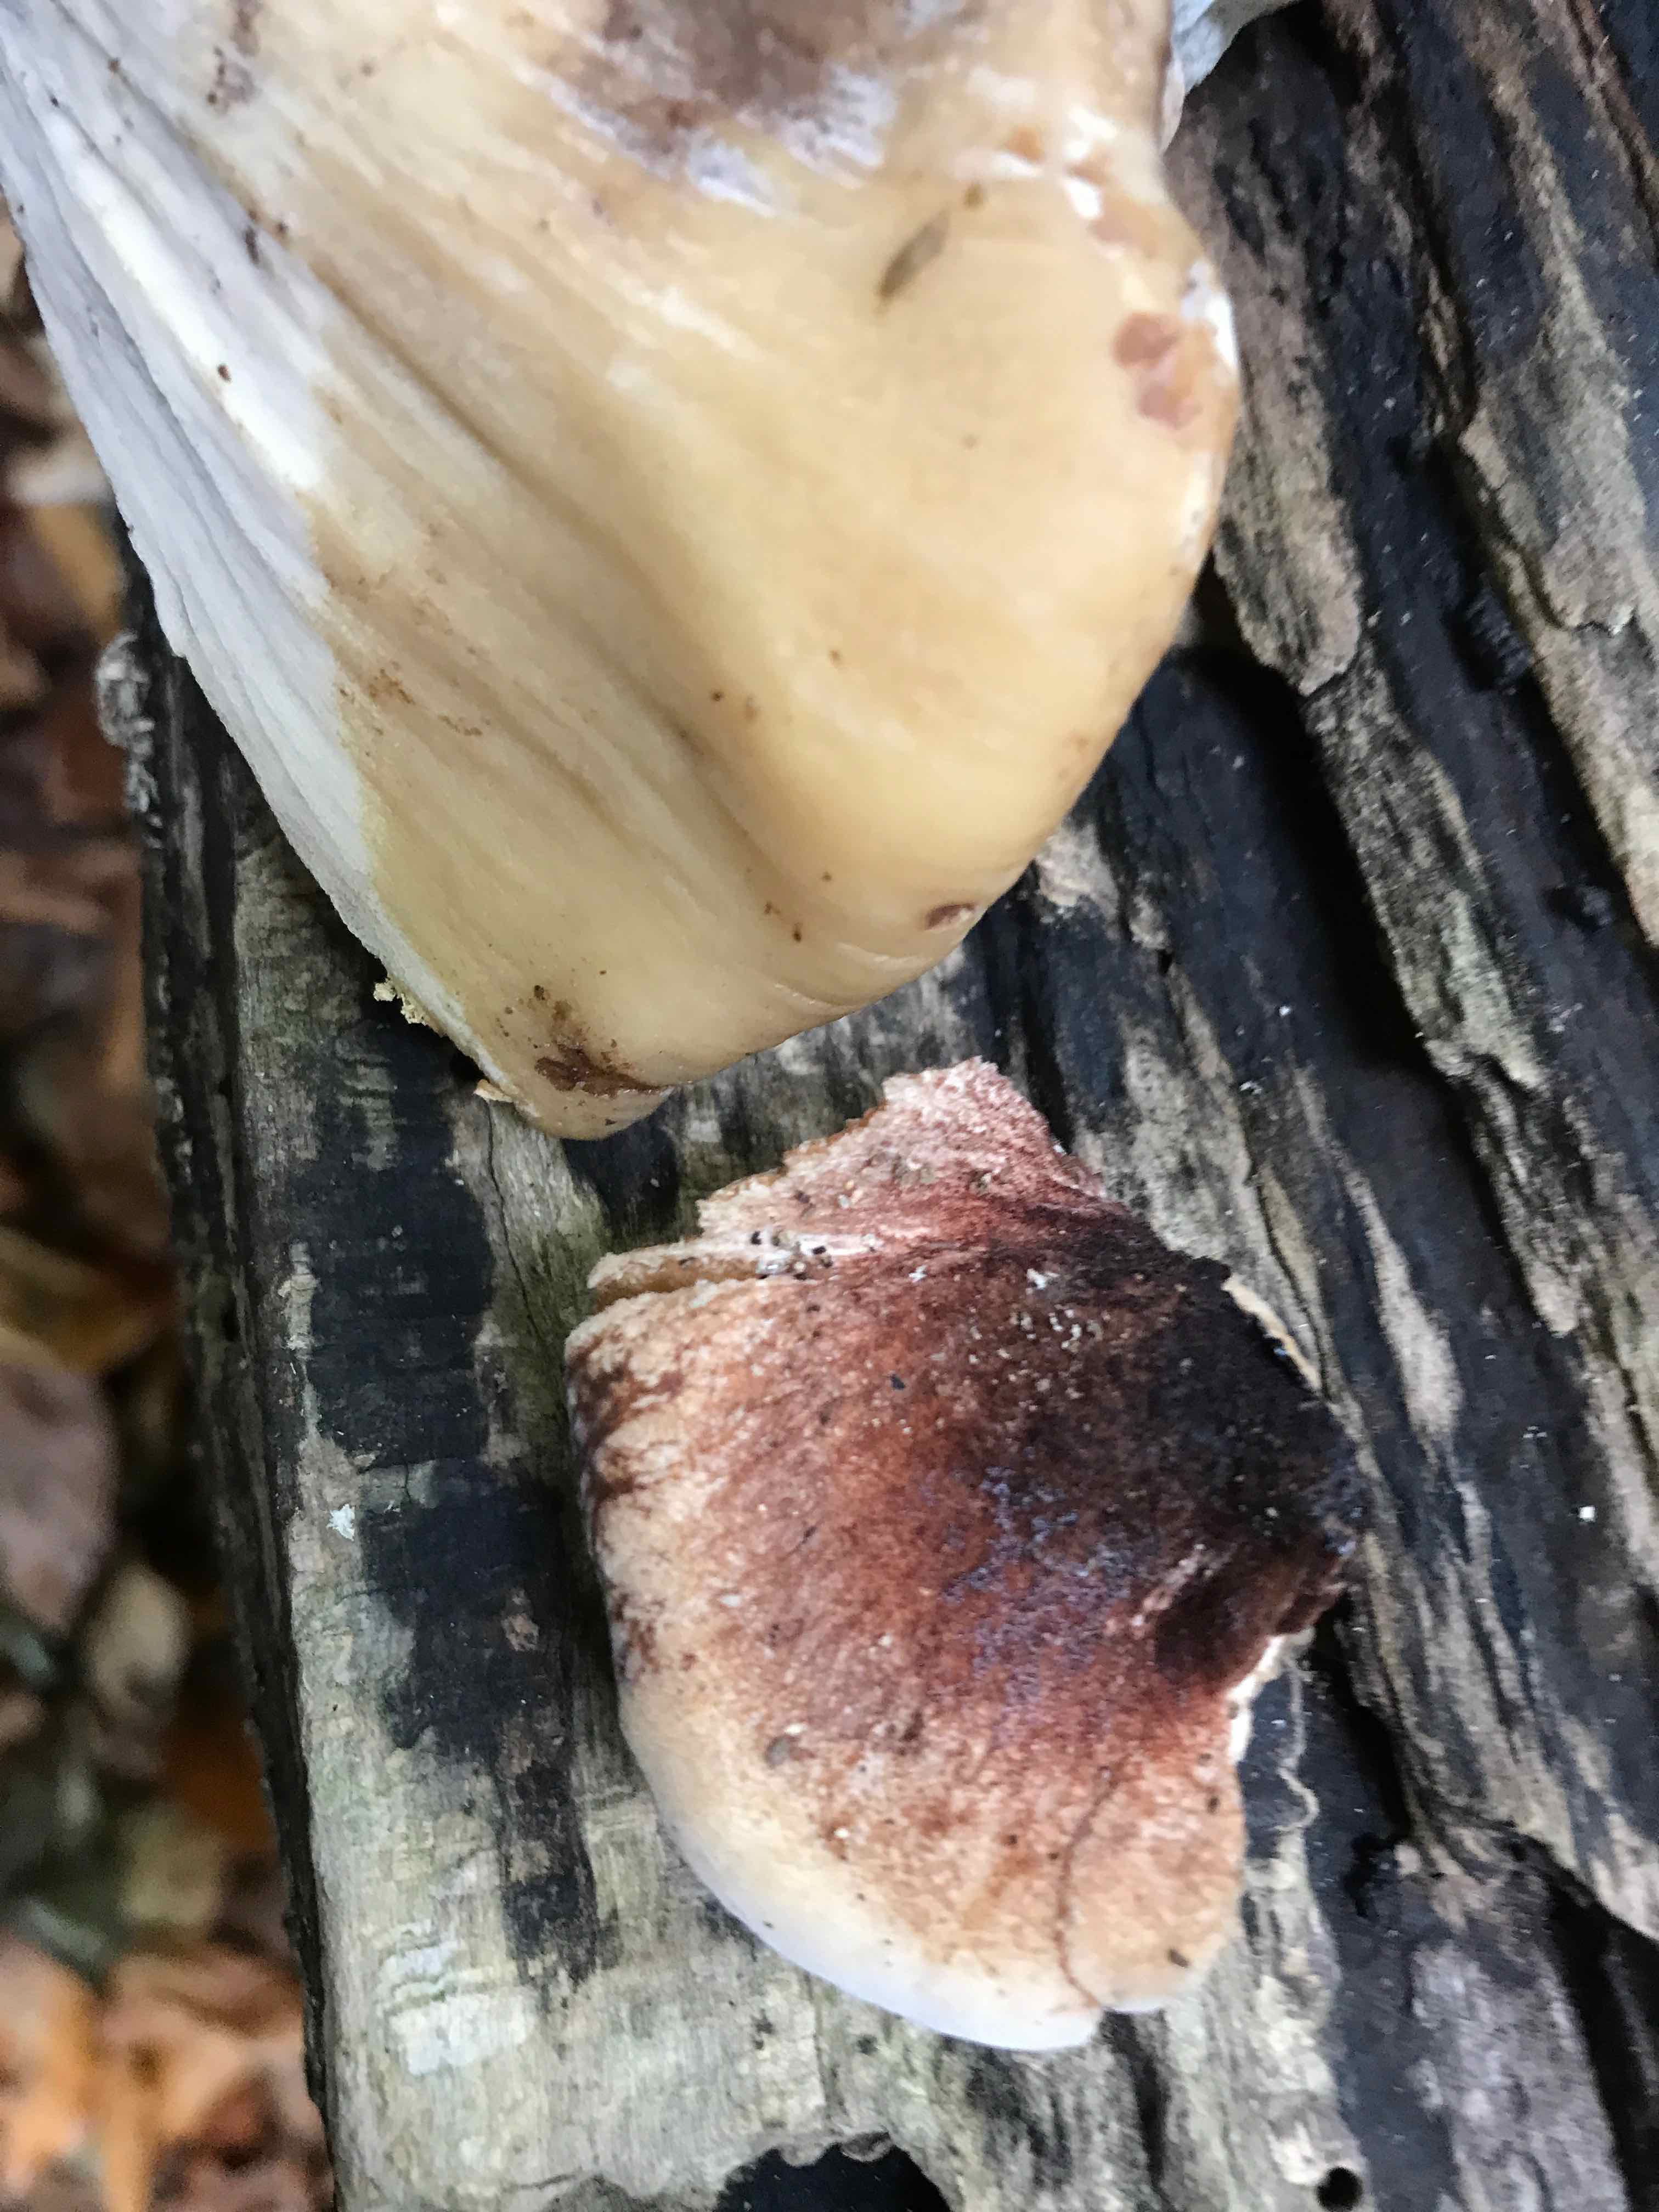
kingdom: Fungi
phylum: Basidiomycota
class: Agaricomycetes
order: Agaricales
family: Fistulinaceae
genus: Fistulina
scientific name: Fistulina hepatica
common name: oksetunge
